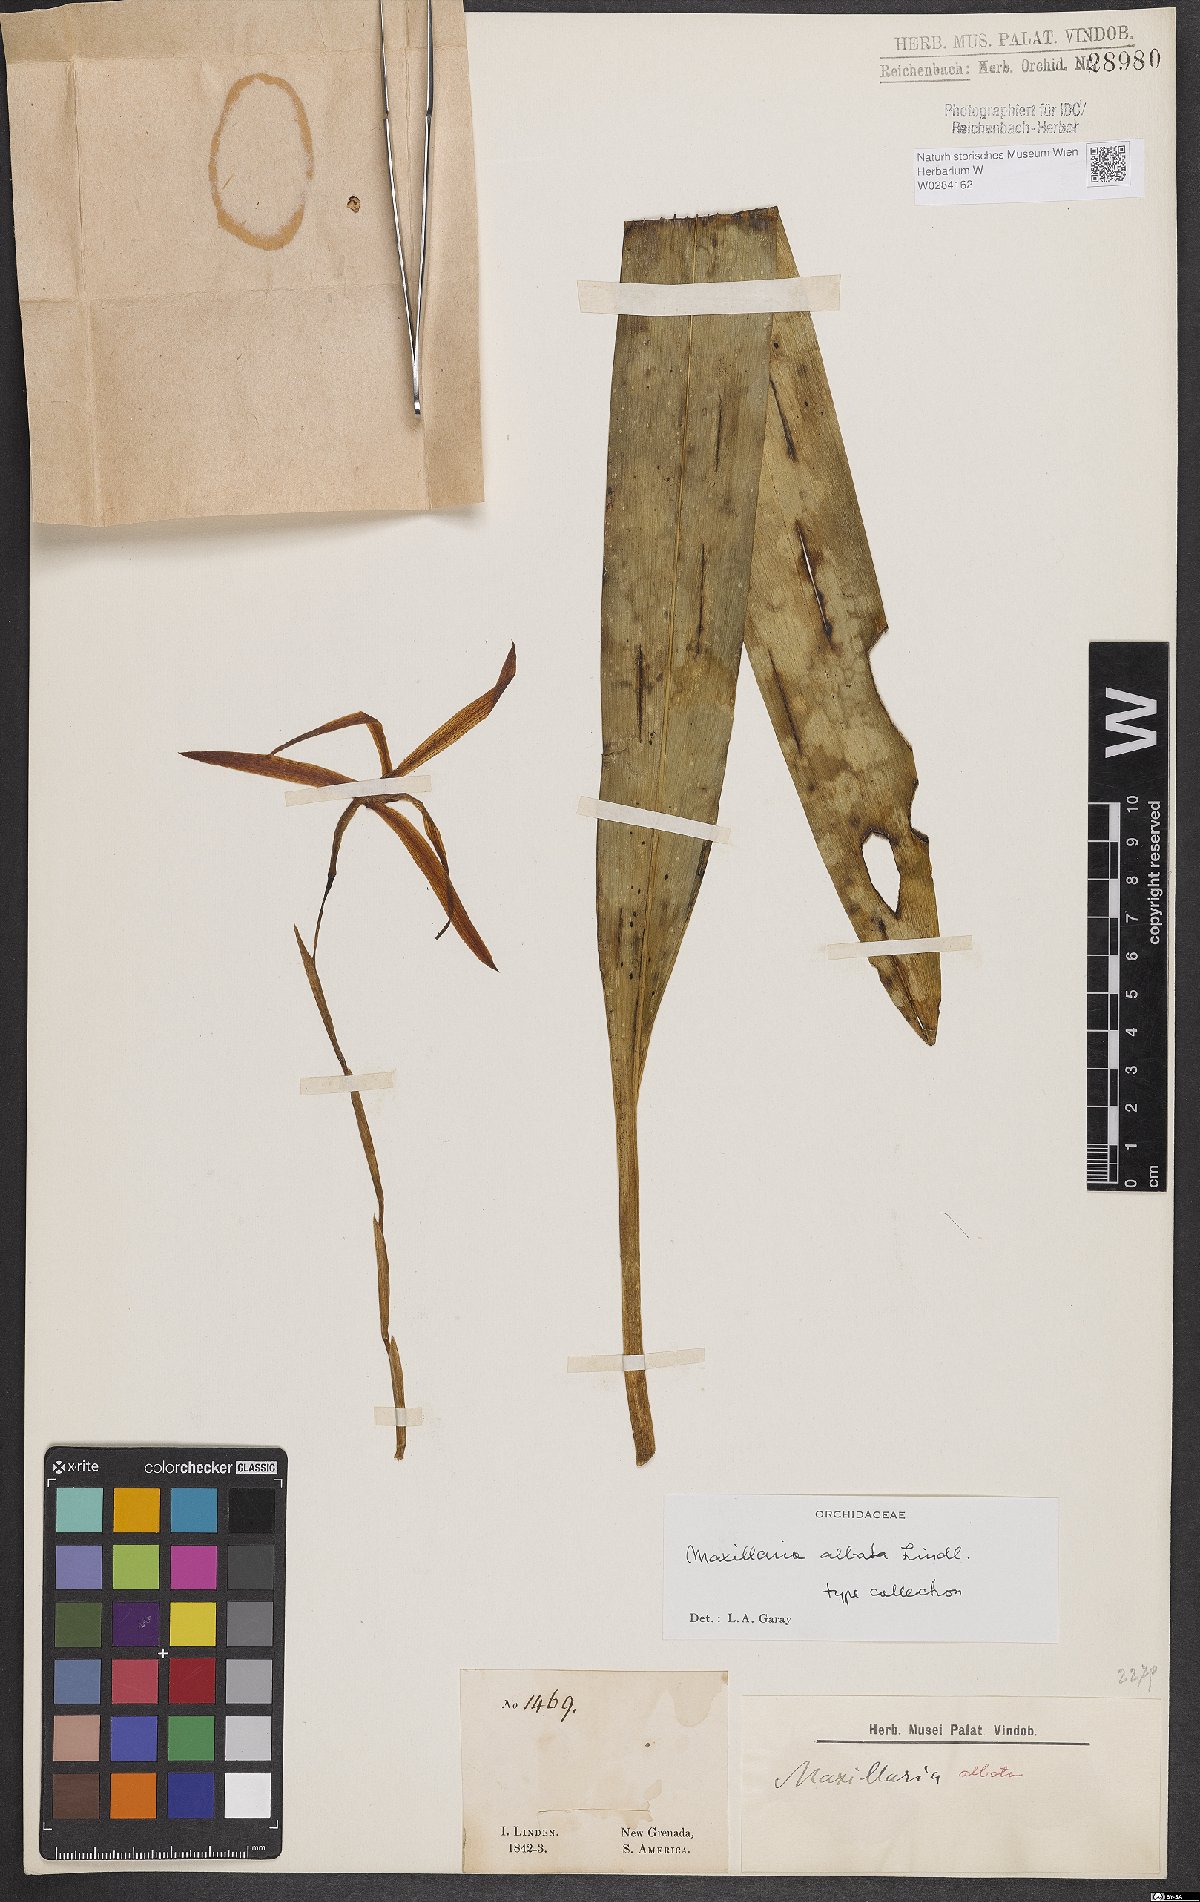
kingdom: Plantae
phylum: Tracheophyta
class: Liliopsida
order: Asparagales
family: Orchidaceae
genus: Maxillaria
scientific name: Maxillaria albata
